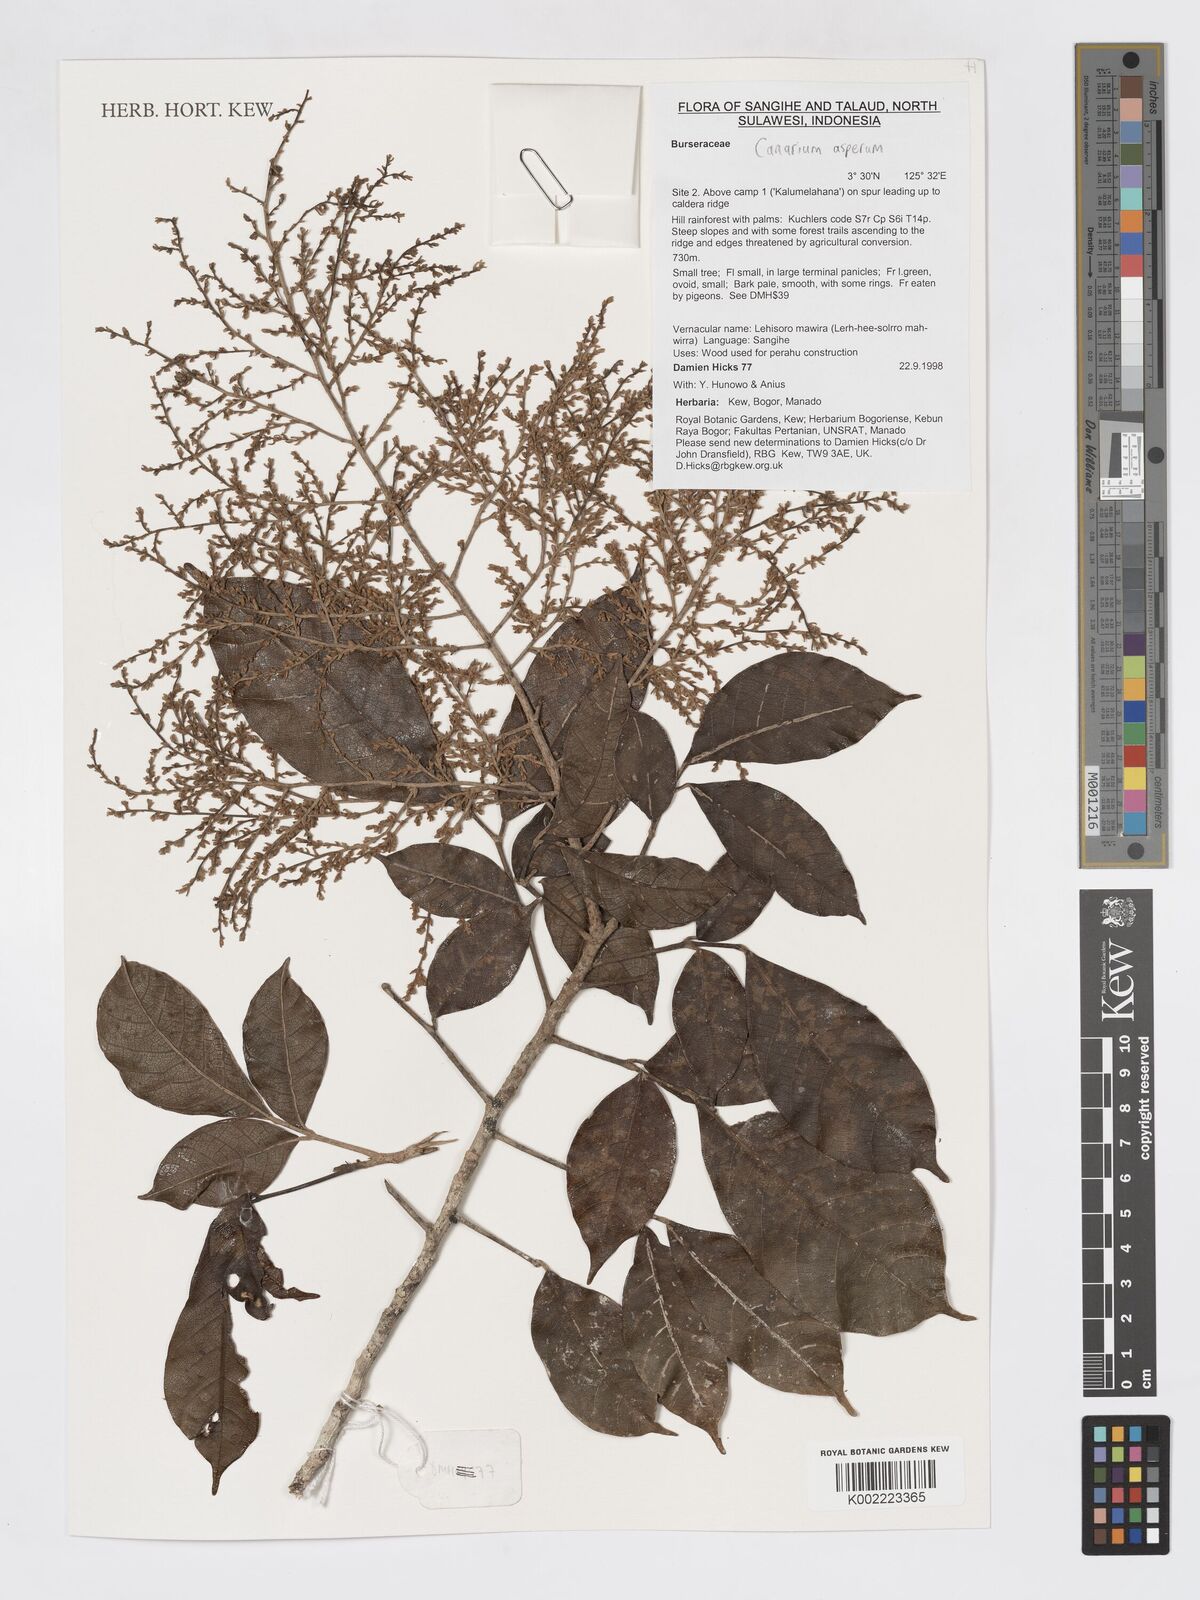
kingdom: Plantae
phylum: Tracheophyta
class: Magnoliopsida
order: Sapindales
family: Burseraceae
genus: Canarium
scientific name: Canarium asperum
